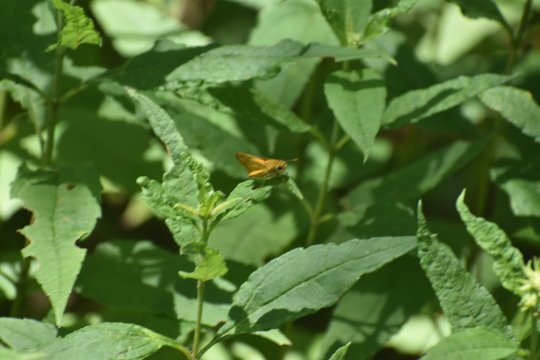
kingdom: Animalia
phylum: Arthropoda
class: Insecta
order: Lepidoptera
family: Hesperiidae
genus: Hylephila
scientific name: Hylephila phyleus
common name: Fiery Skipper
